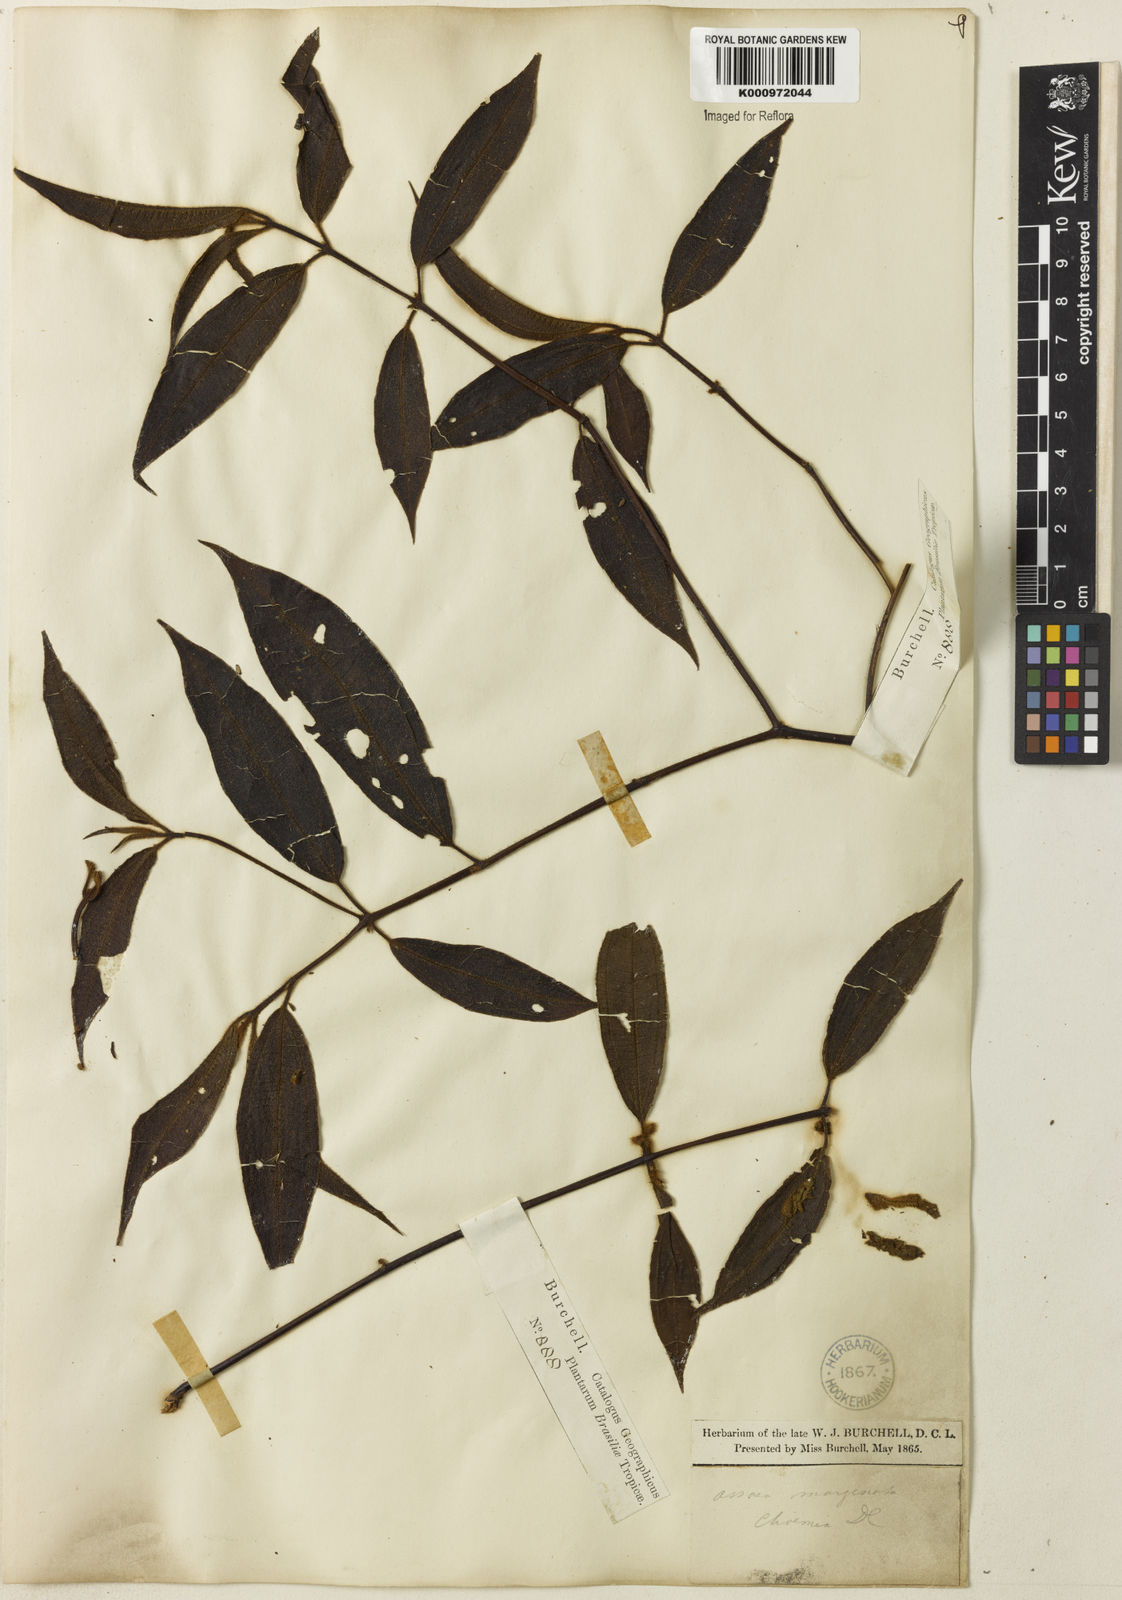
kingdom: Plantae
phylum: Tracheophyta
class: Magnoliopsida
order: Myrtales
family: Melastomataceae
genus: Miconia
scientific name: Miconia leamarginata
